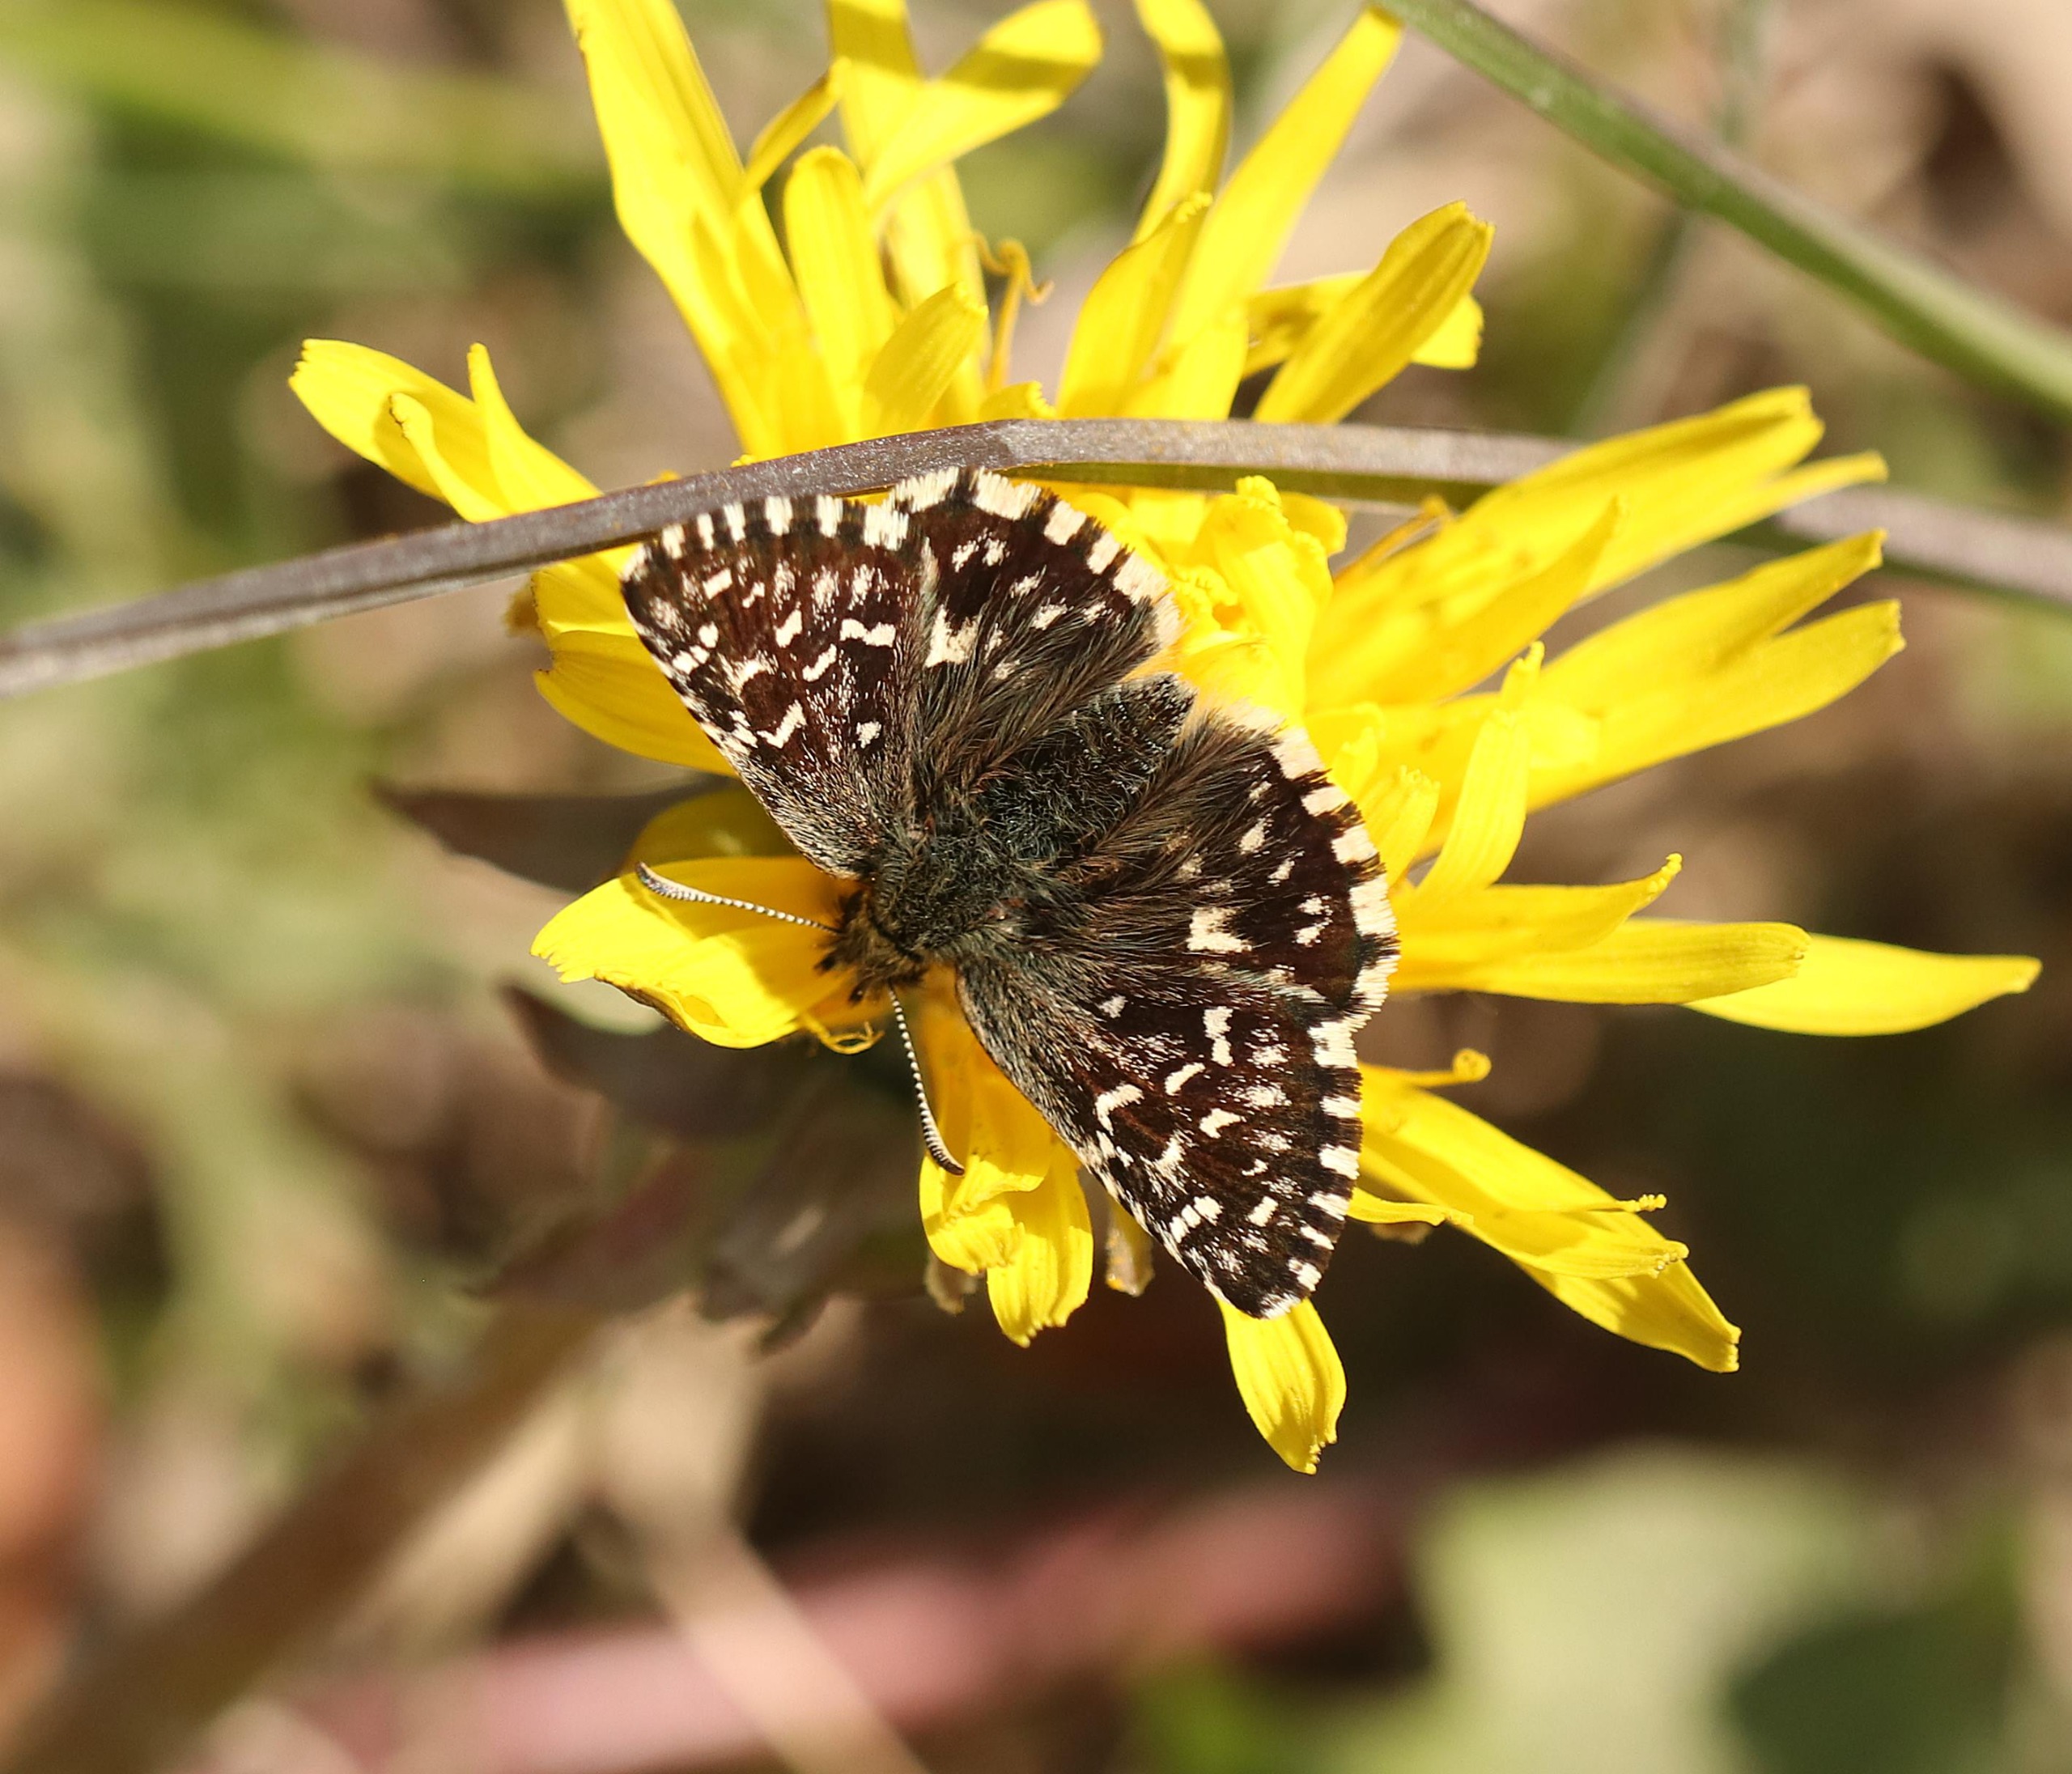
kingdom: Animalia
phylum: Arthropoda
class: Insecta
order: Lepidoptera
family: Hesperiidae
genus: Pyrgus
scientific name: Pyrgus malvae
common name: Spættet bredpande
